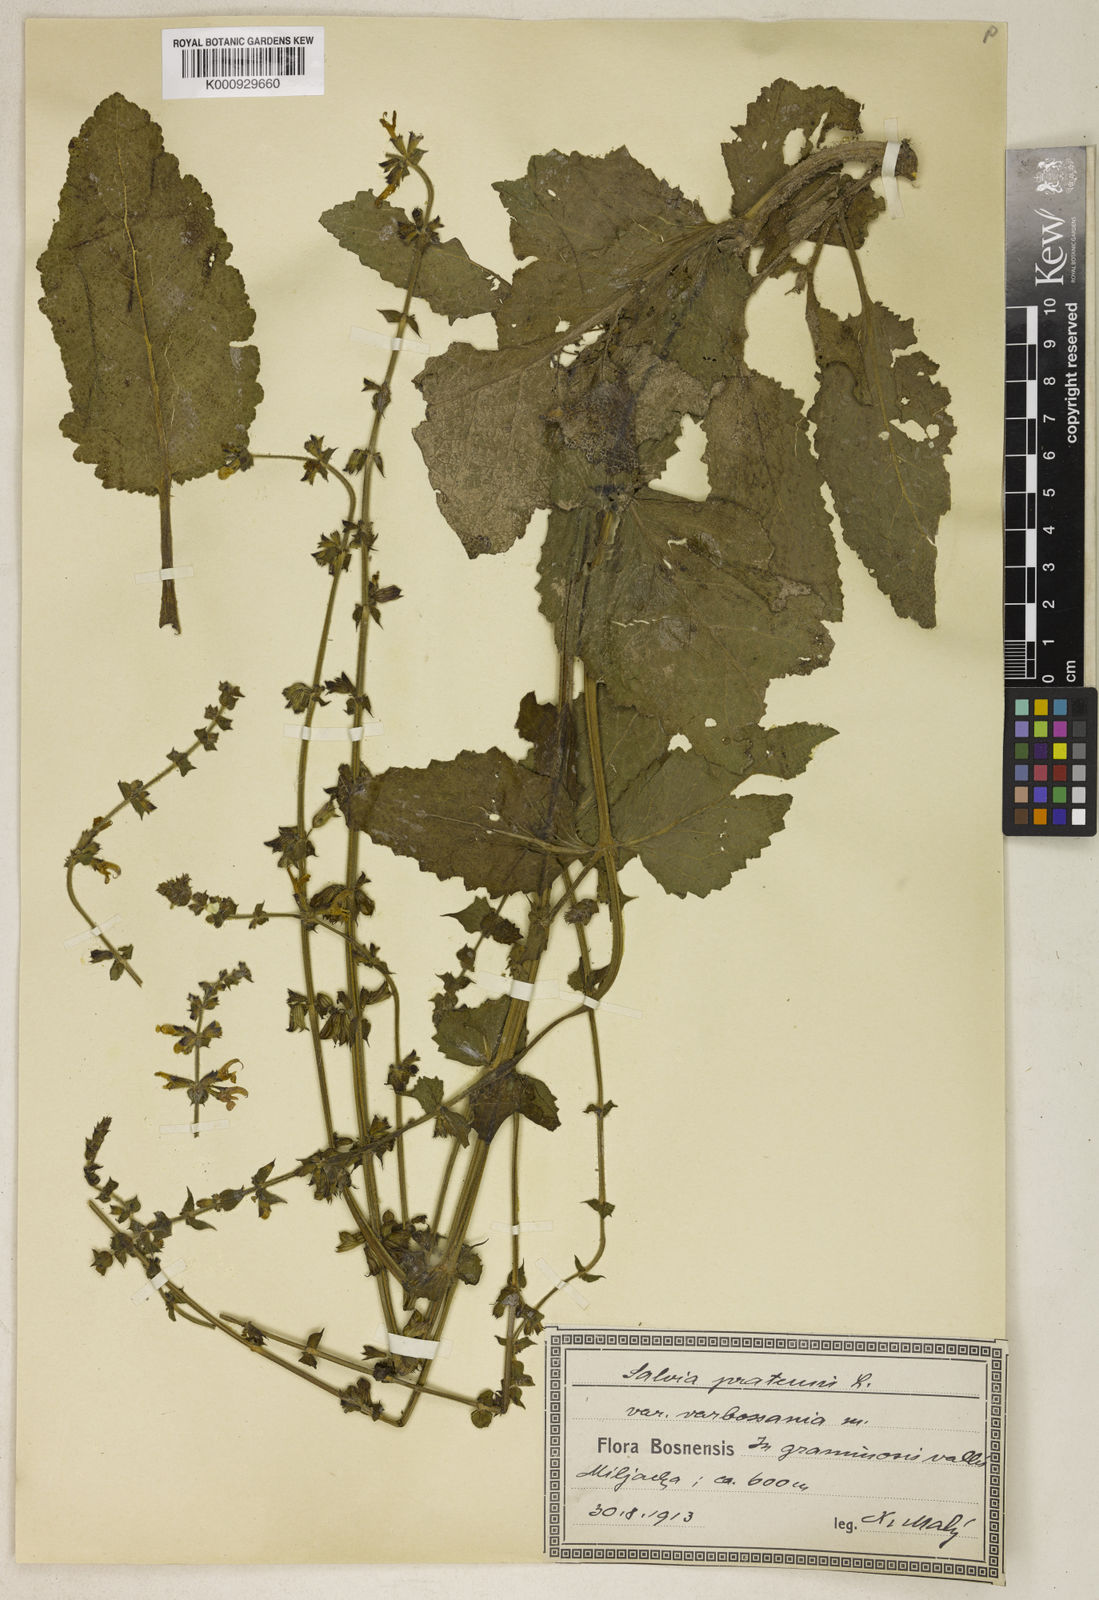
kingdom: Plantae
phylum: Tracheophyta
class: Magnoliopsida
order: Lamiales
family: Lamiaceae
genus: Salvia
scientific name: Salvia pratensis
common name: Meadow sage
